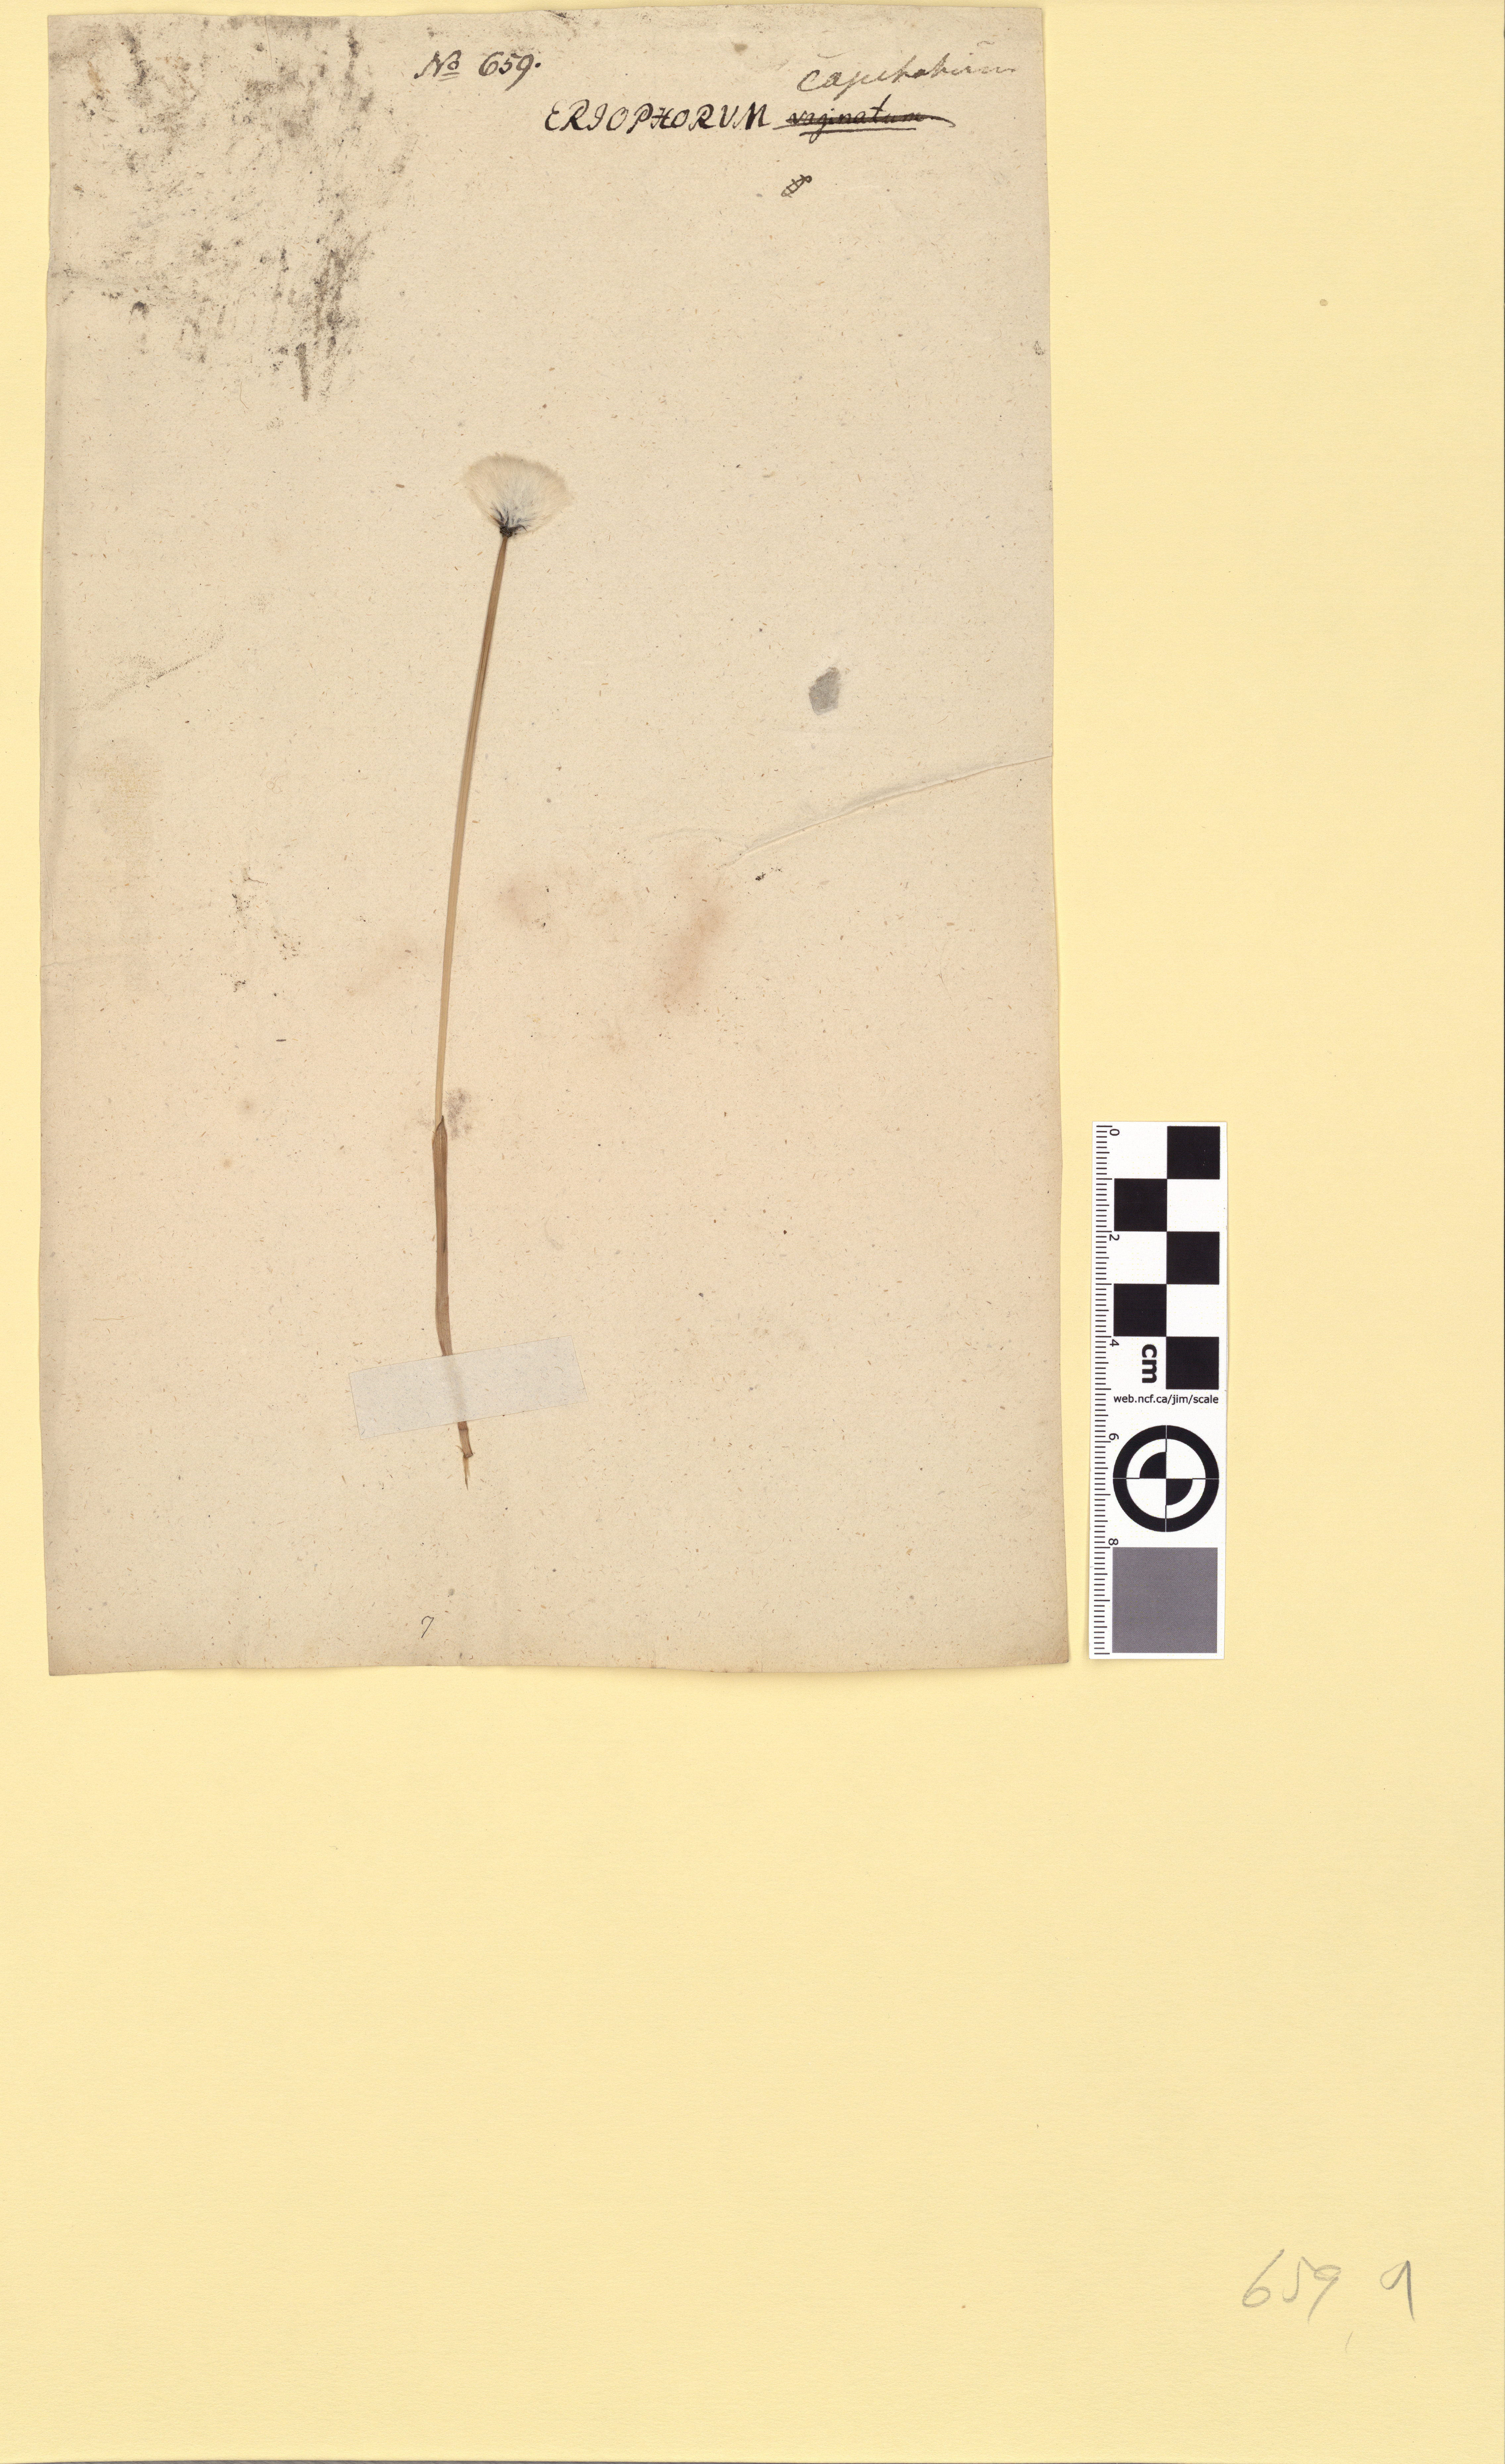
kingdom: Plantae
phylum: Tracheophyta
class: Liliopsida
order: Poales
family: Cyperaceae
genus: Eriophorum
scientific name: Eriophorum scheuchzeri
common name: Scheuchzer's cottongrass
